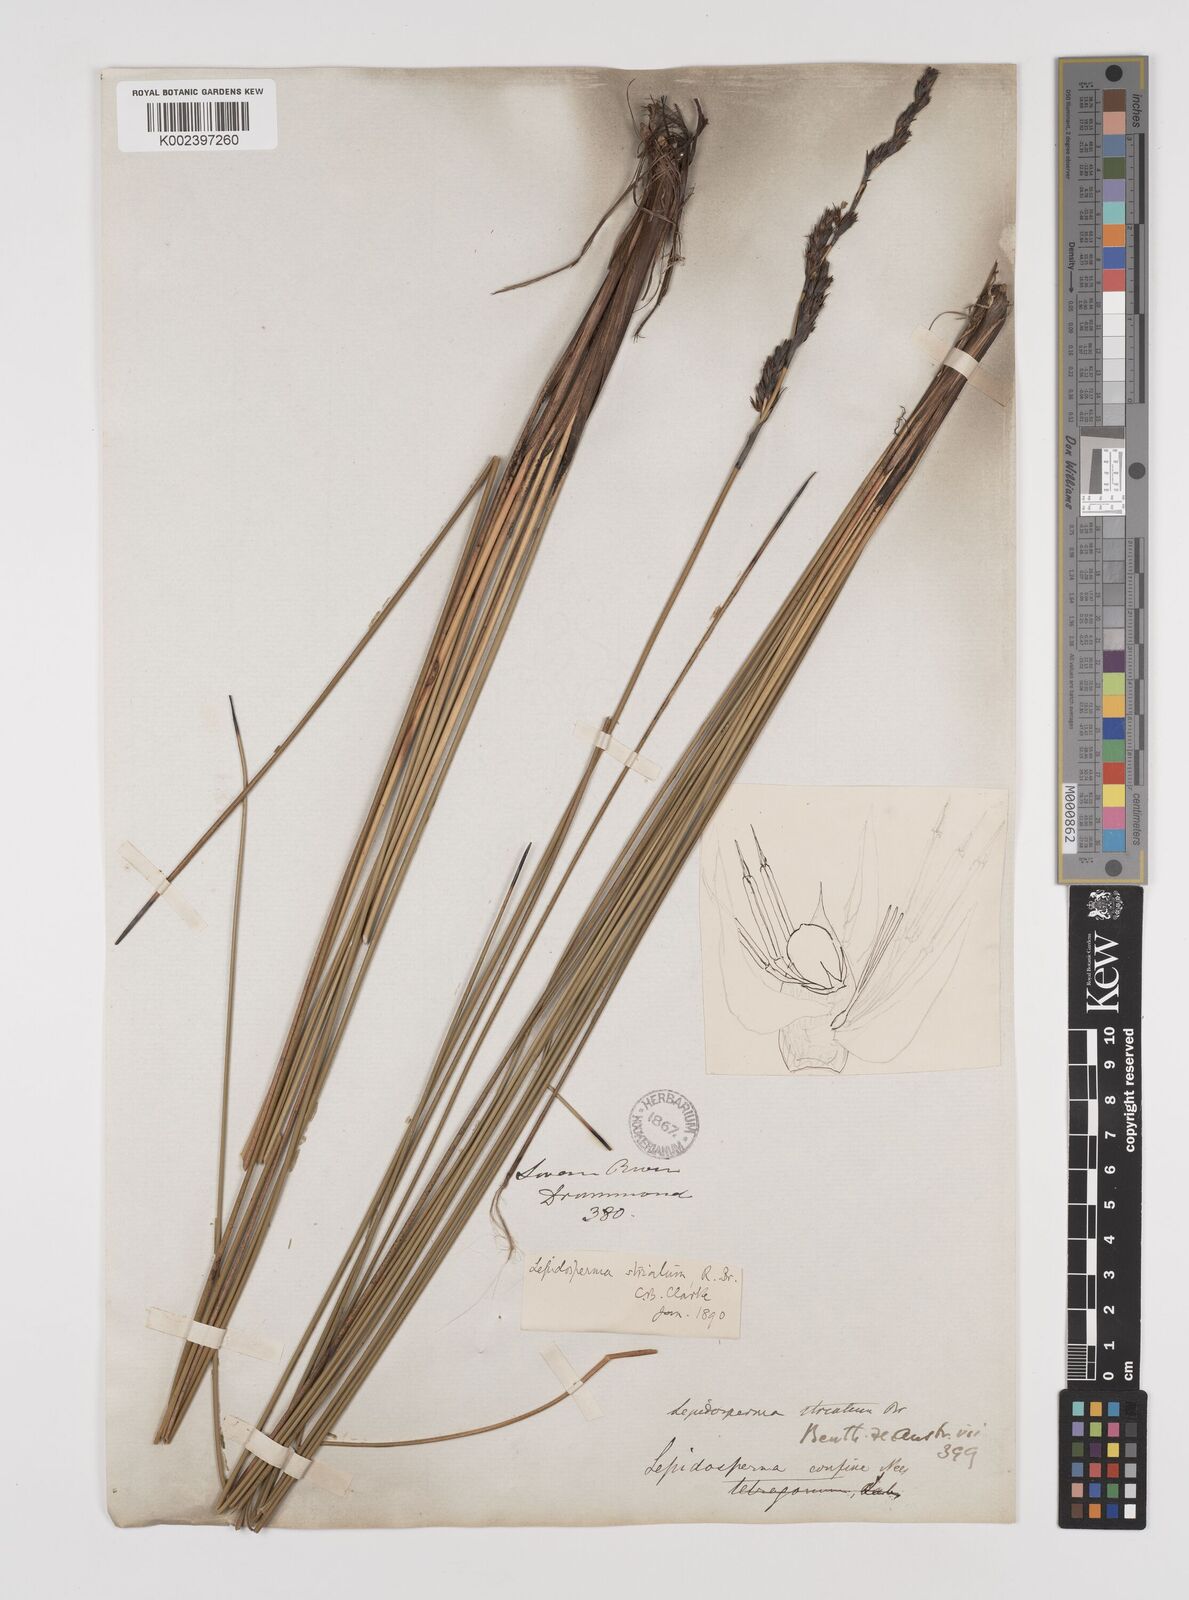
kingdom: Plantae
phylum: Tracheophyta
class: Liliopsida
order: Poales
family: Cyperaceae
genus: Lepidosperma
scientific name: Lepidosperma striatum
